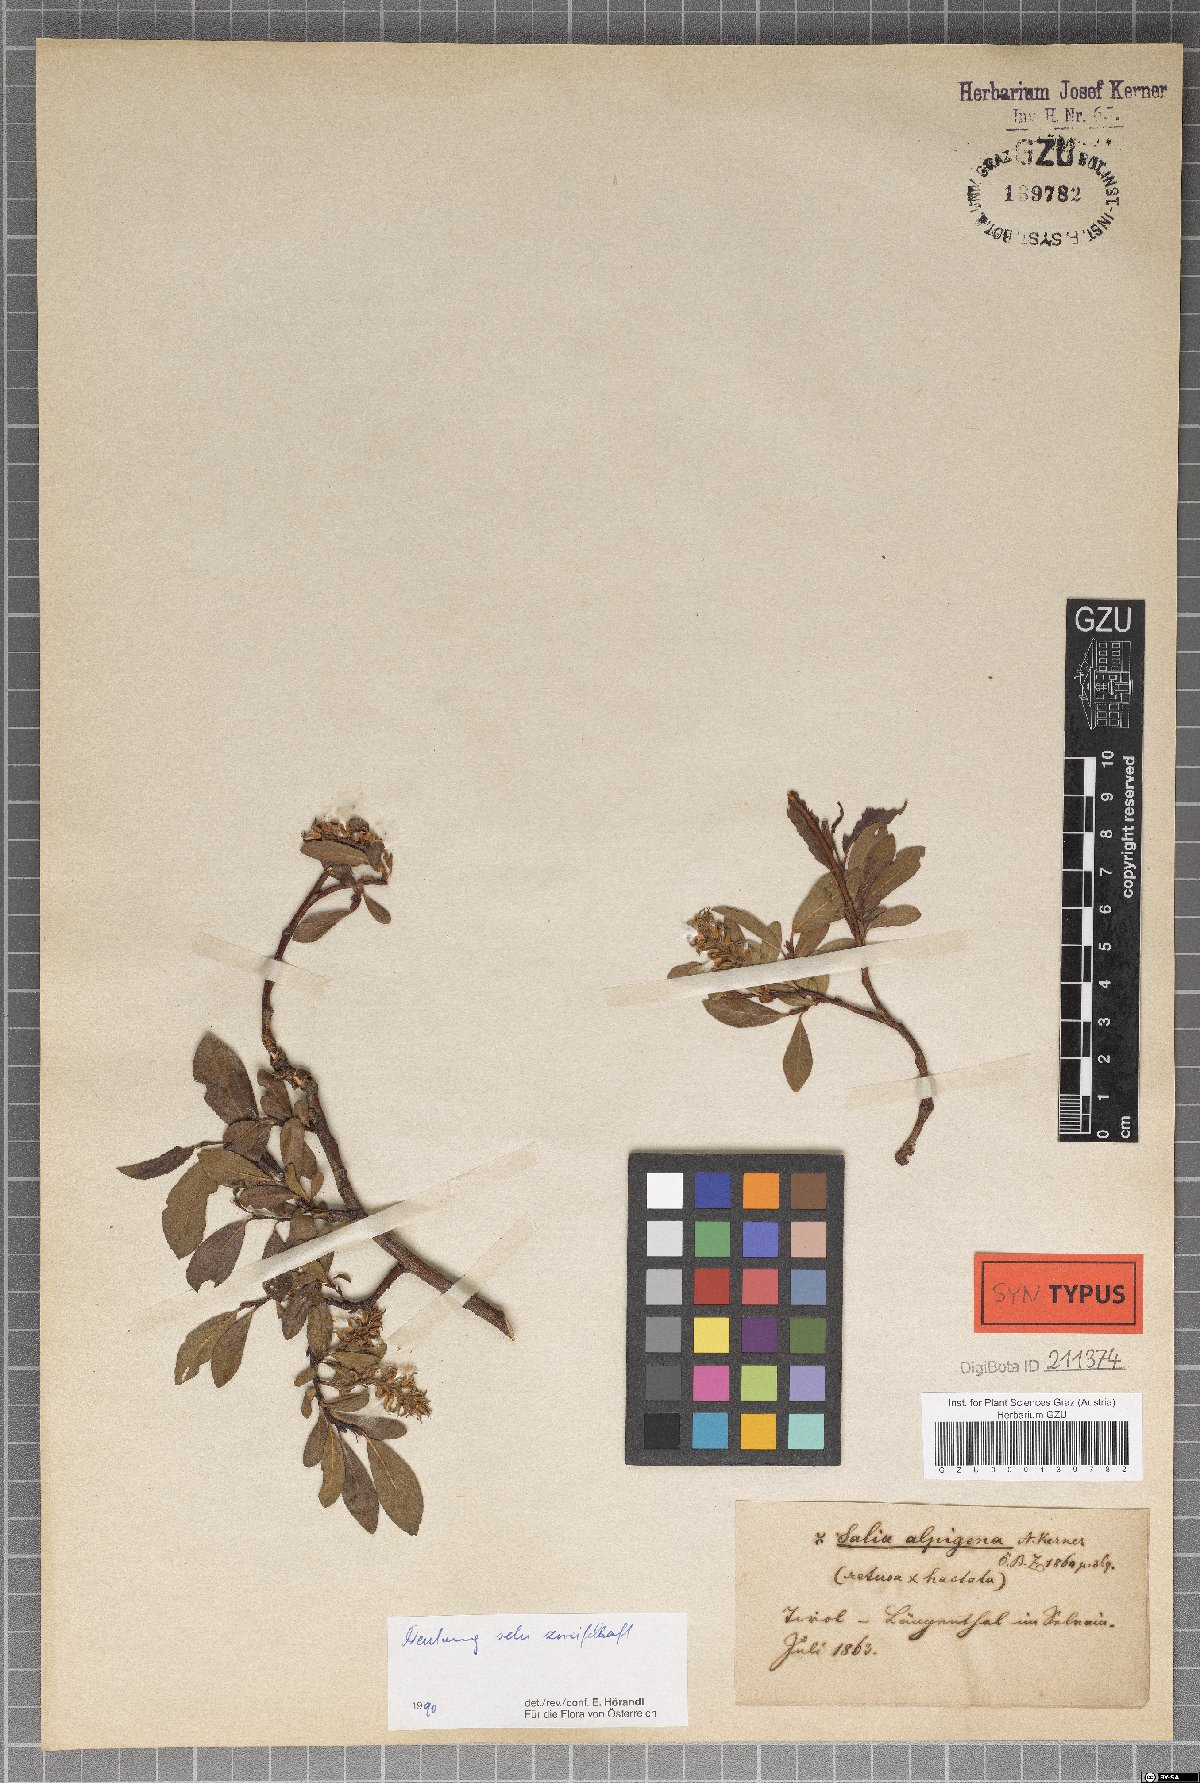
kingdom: Plantae
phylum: Tracheophyta
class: Magnoliopsida
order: Malpighiales
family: Salicaceae
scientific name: Salicaceae
